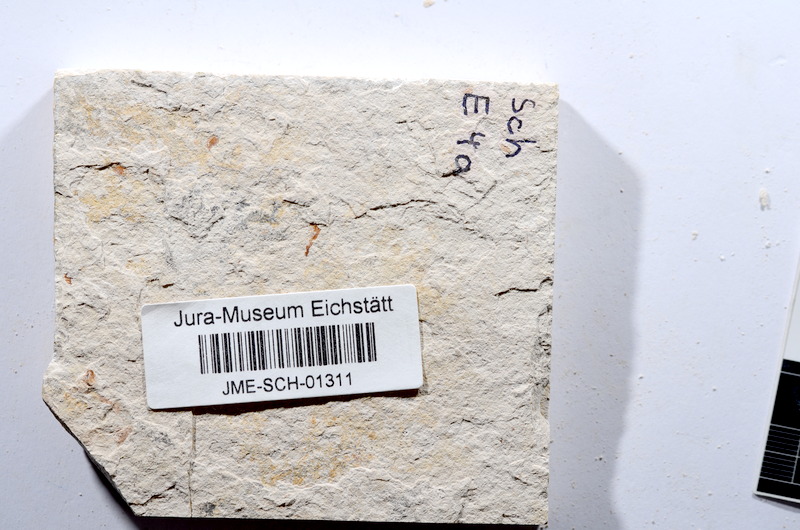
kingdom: Animalia
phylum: Chordata
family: Ascalaboidae
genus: Tharsis
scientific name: Tharsis dubius
